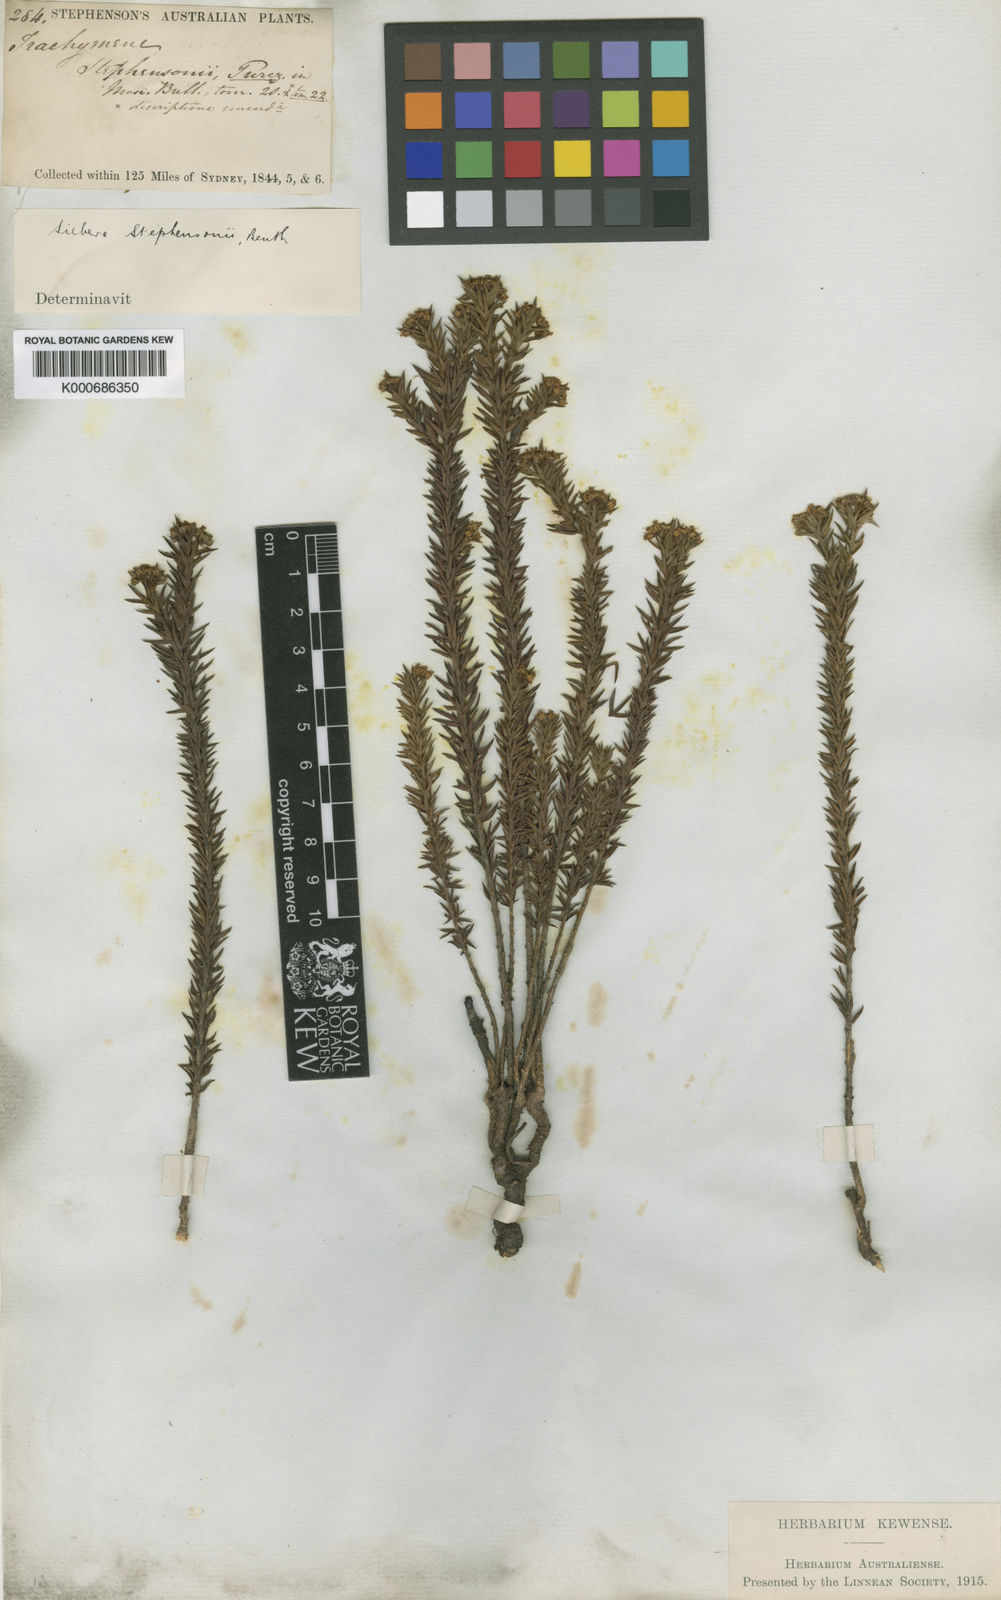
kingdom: Plantae
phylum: Tracheophyta
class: Magnoliopsida
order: Apiales
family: Apiaceae
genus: Platysace
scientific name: Platysace stephensonii
